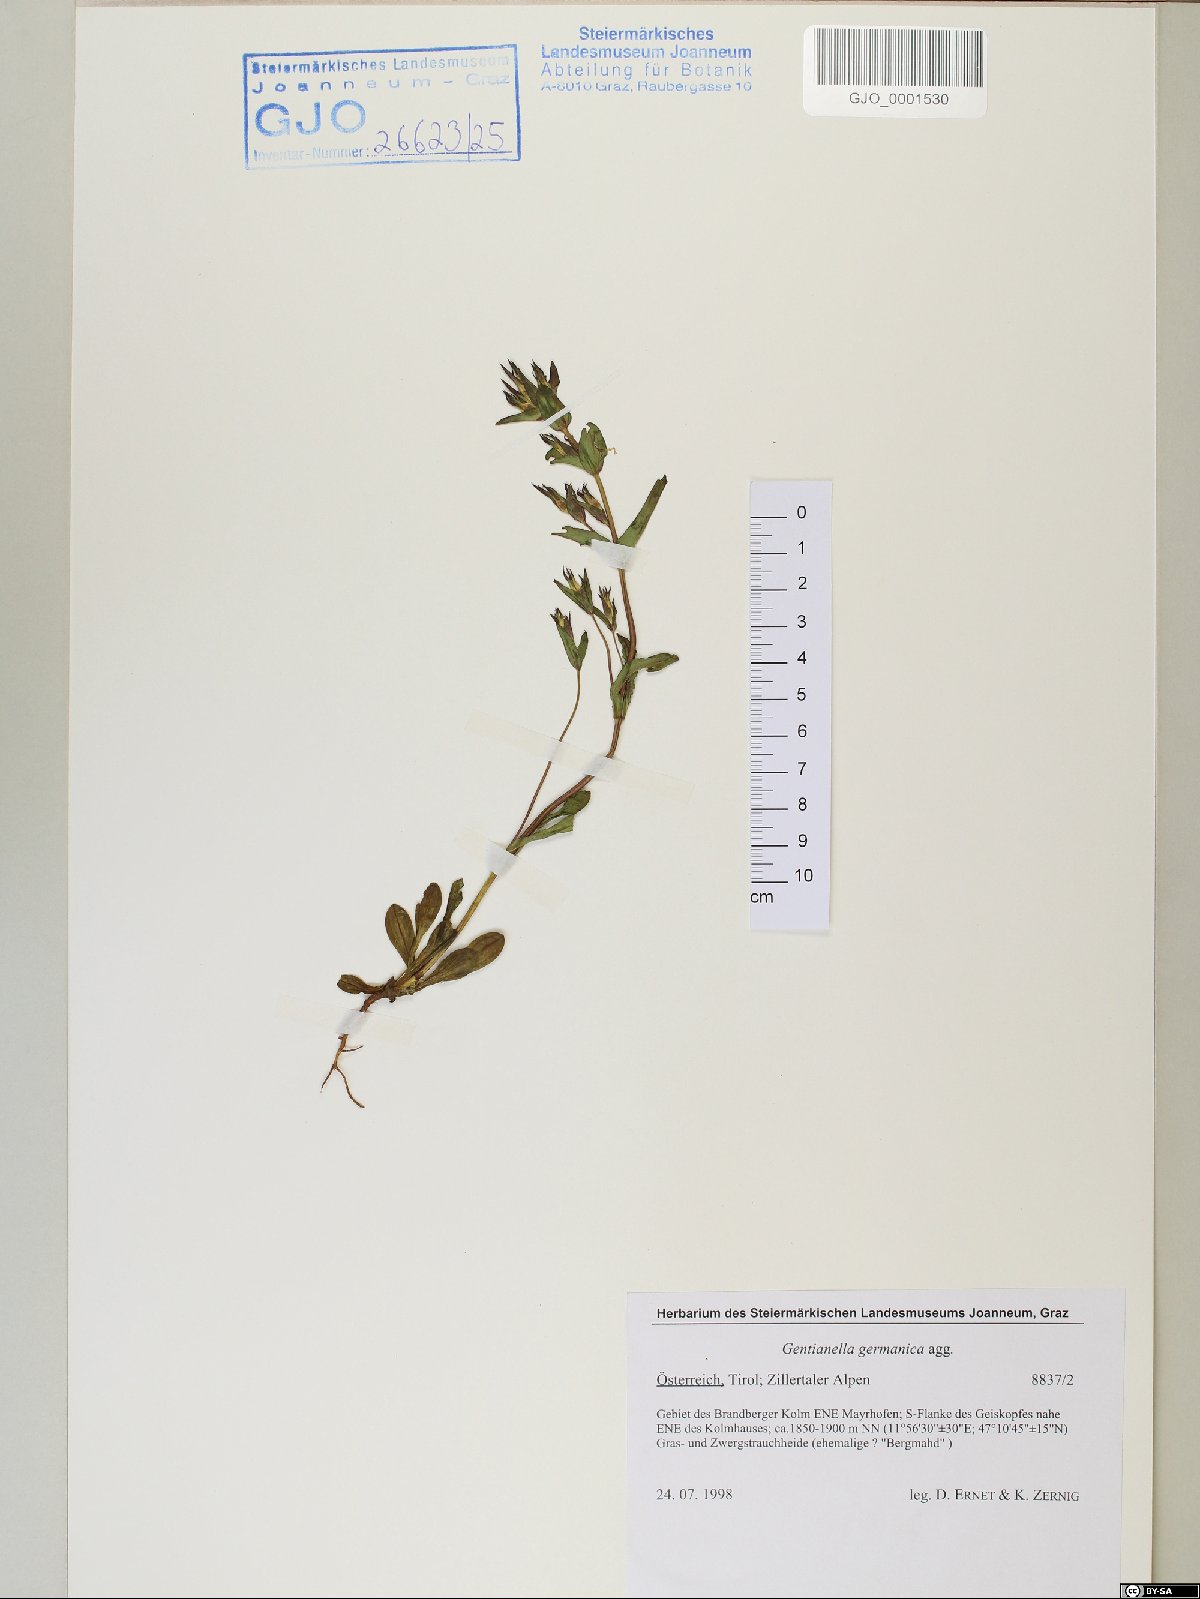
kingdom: Plantae
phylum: Tracheophyta
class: Magnoliopsida
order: Gentianales
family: Gentianaceae
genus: Gentianella
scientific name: Gentianella germanica
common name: Chiltern-gentian
